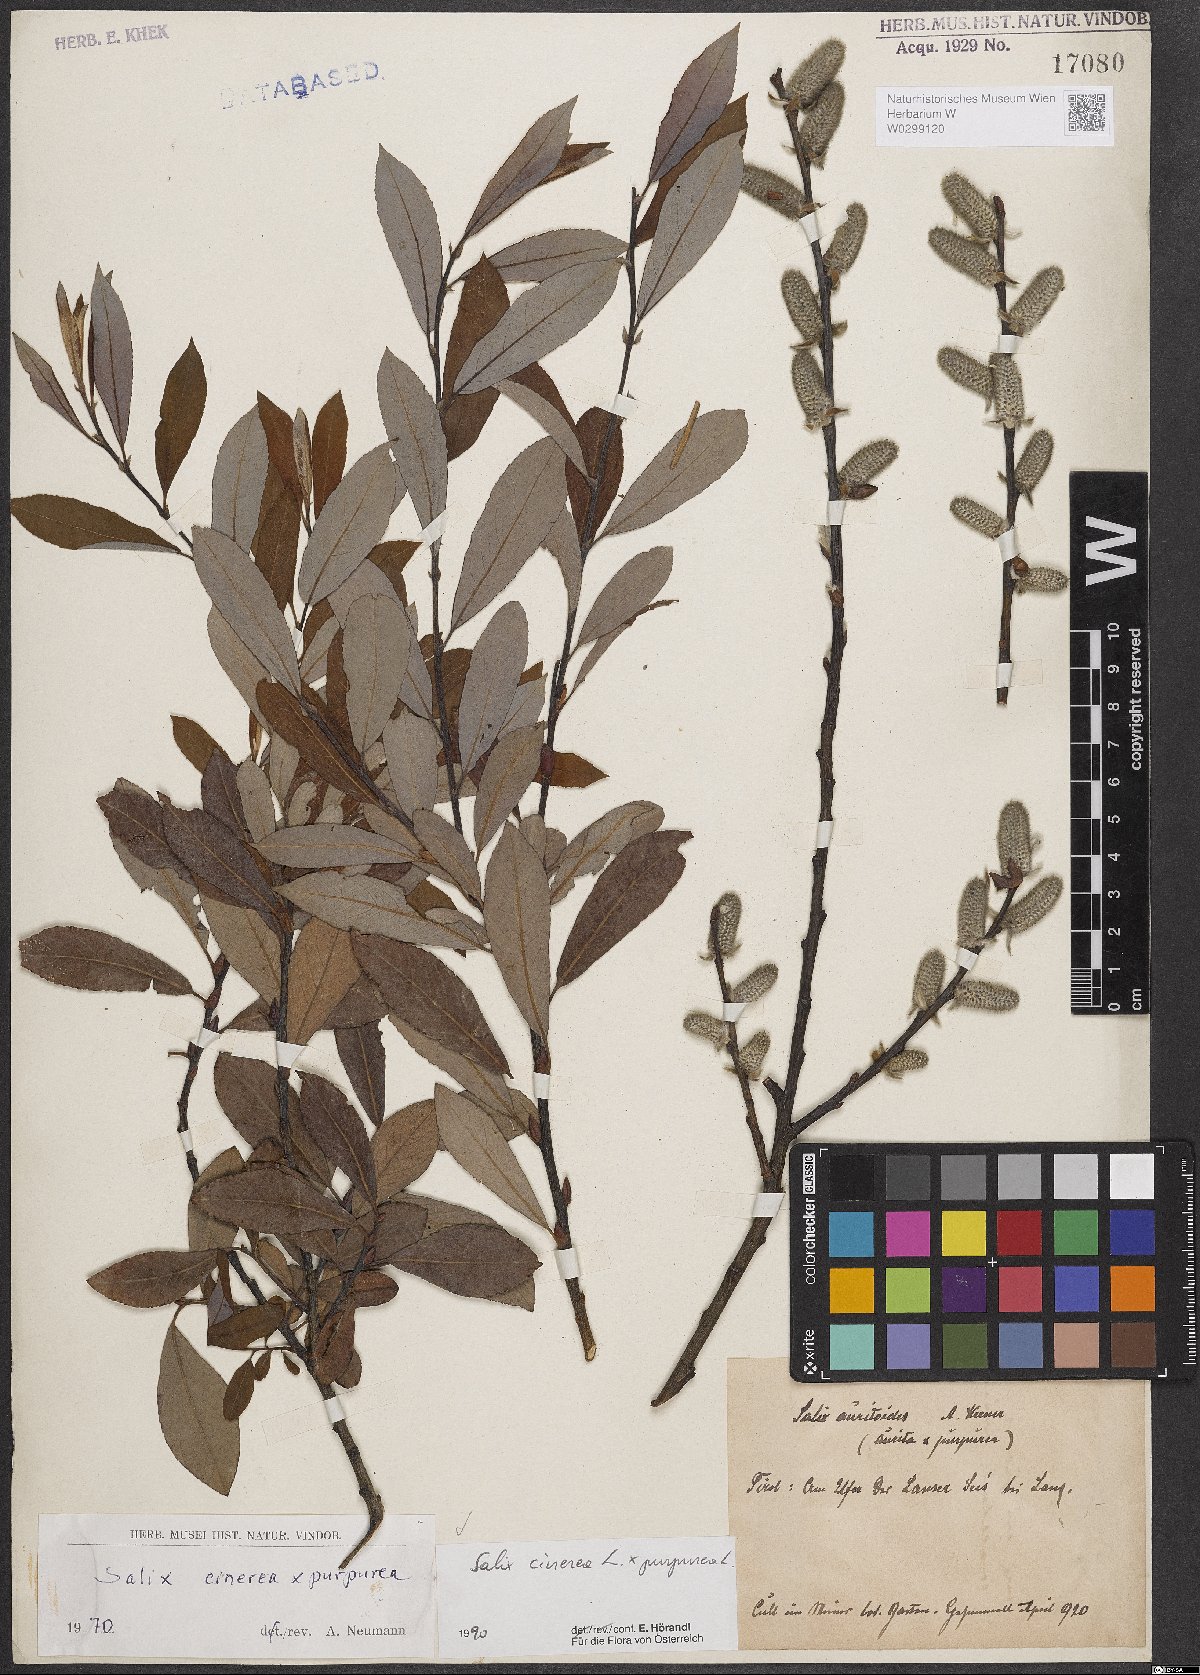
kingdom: Plantae
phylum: Tracheophyta
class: Magnoliopsida
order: Malpighiales
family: Salicaceae
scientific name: Salicaceae
